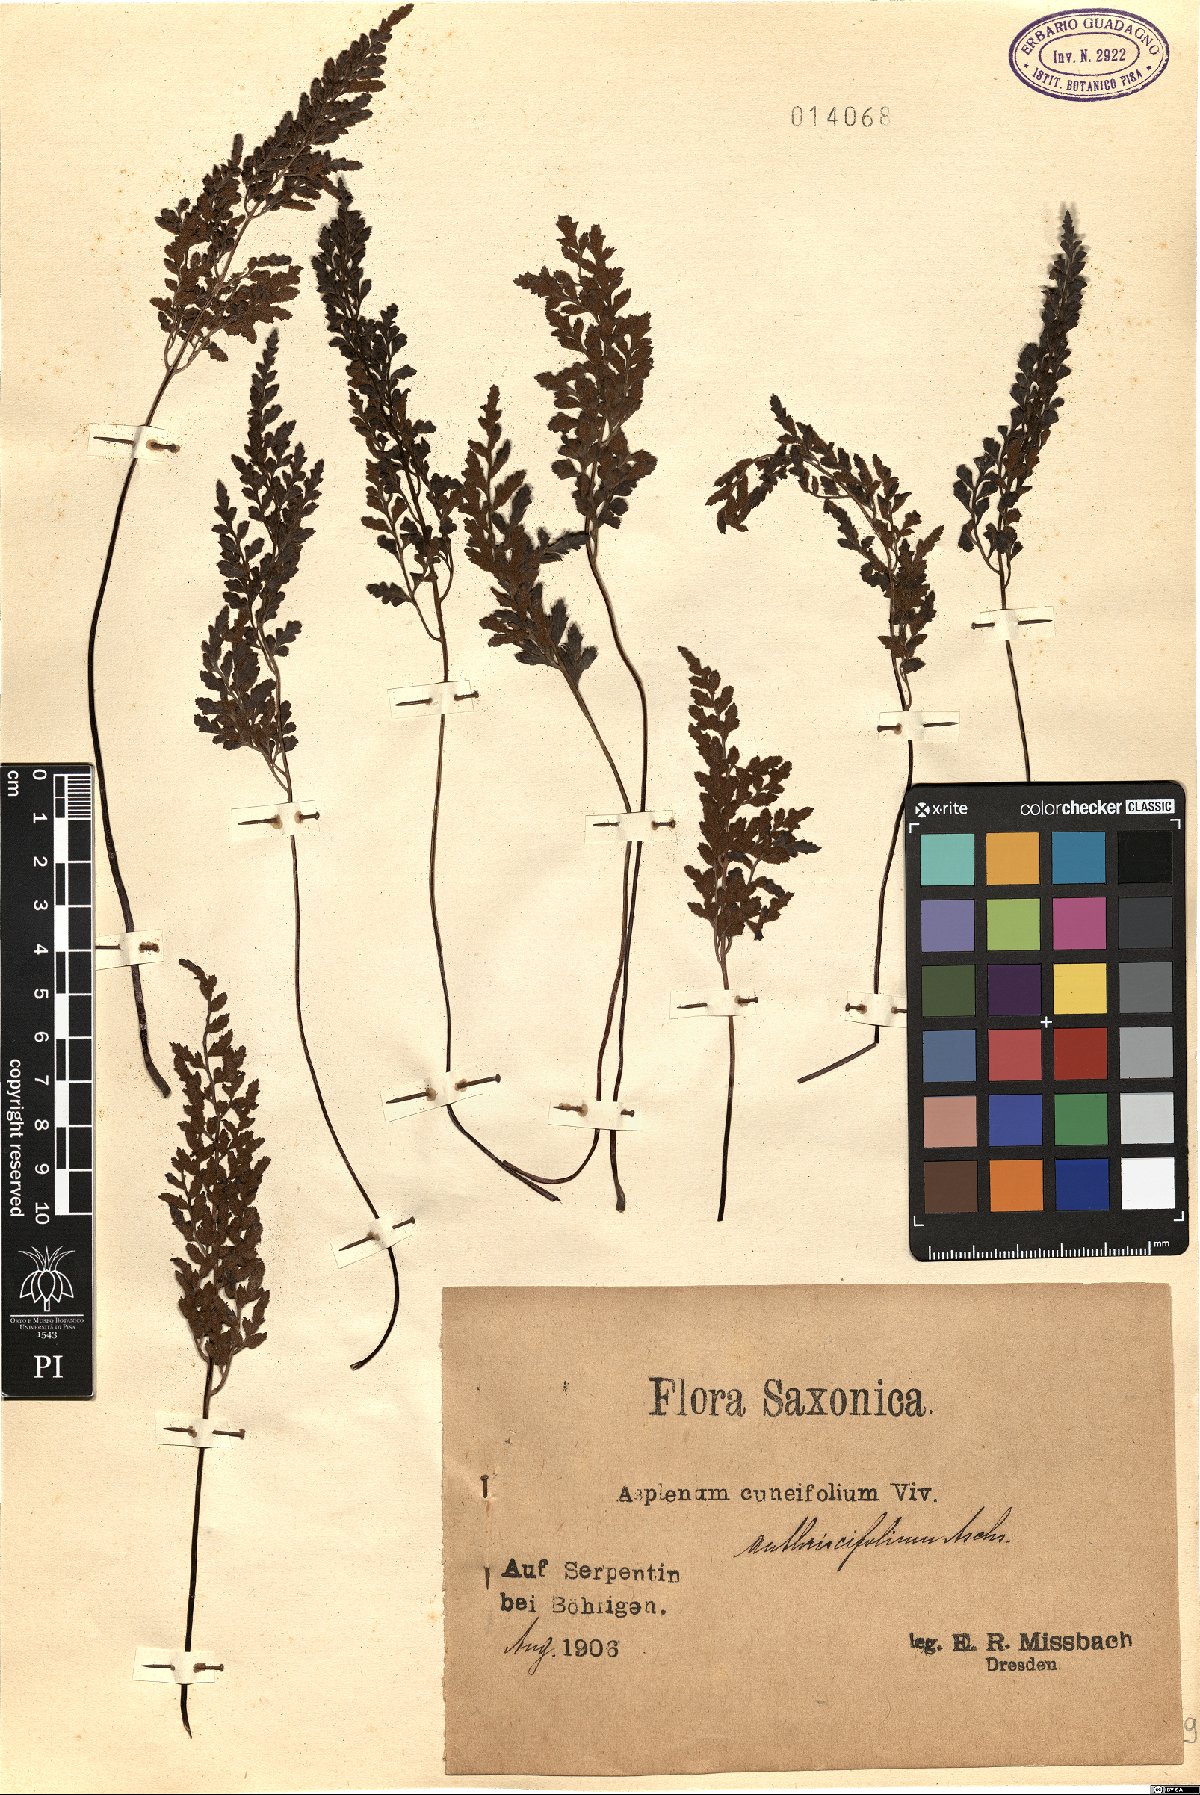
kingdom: Plantae
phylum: Tracheophyta
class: Polypodiopsida
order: Polypodiales
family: Aspleniaceae
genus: Asplenium
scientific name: Asplenium cuneifolium
